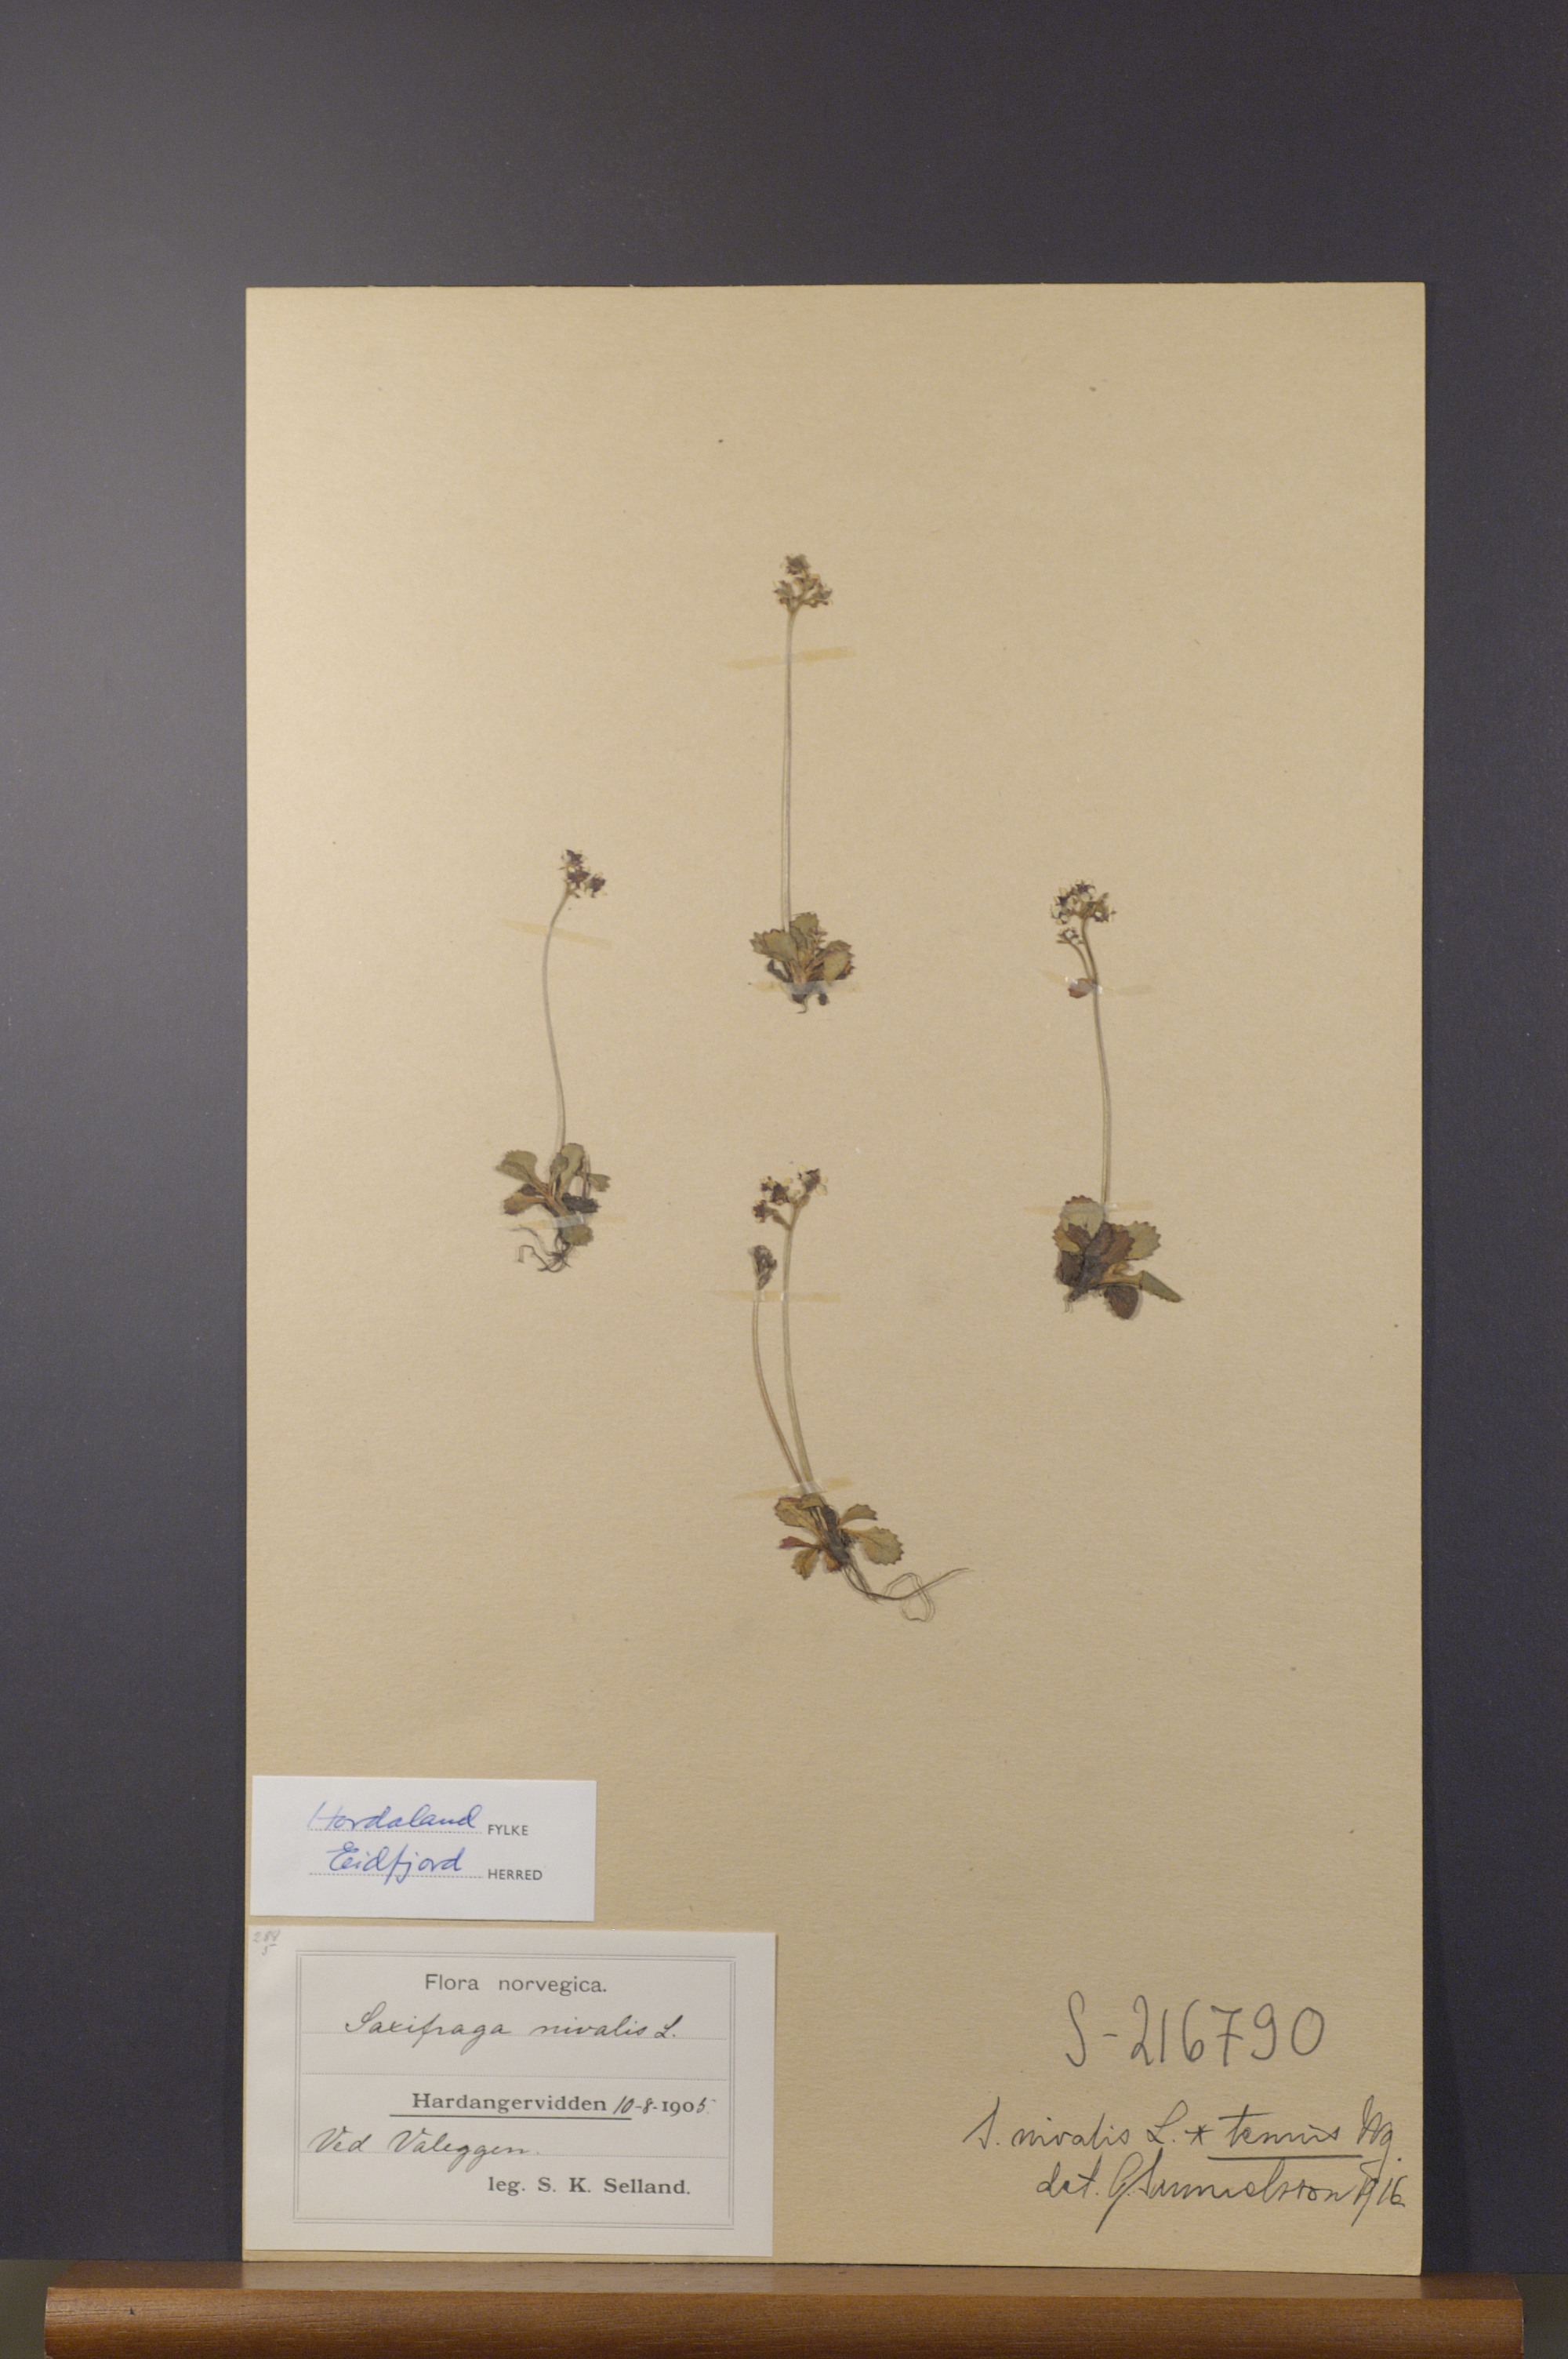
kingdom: Plantae
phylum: Tracheophyta
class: Magnoliopsida
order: Saxifragales
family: Saxifragaceae
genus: Micranthes
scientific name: Micranthes tenuis
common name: Ottertail pass saxifrage
